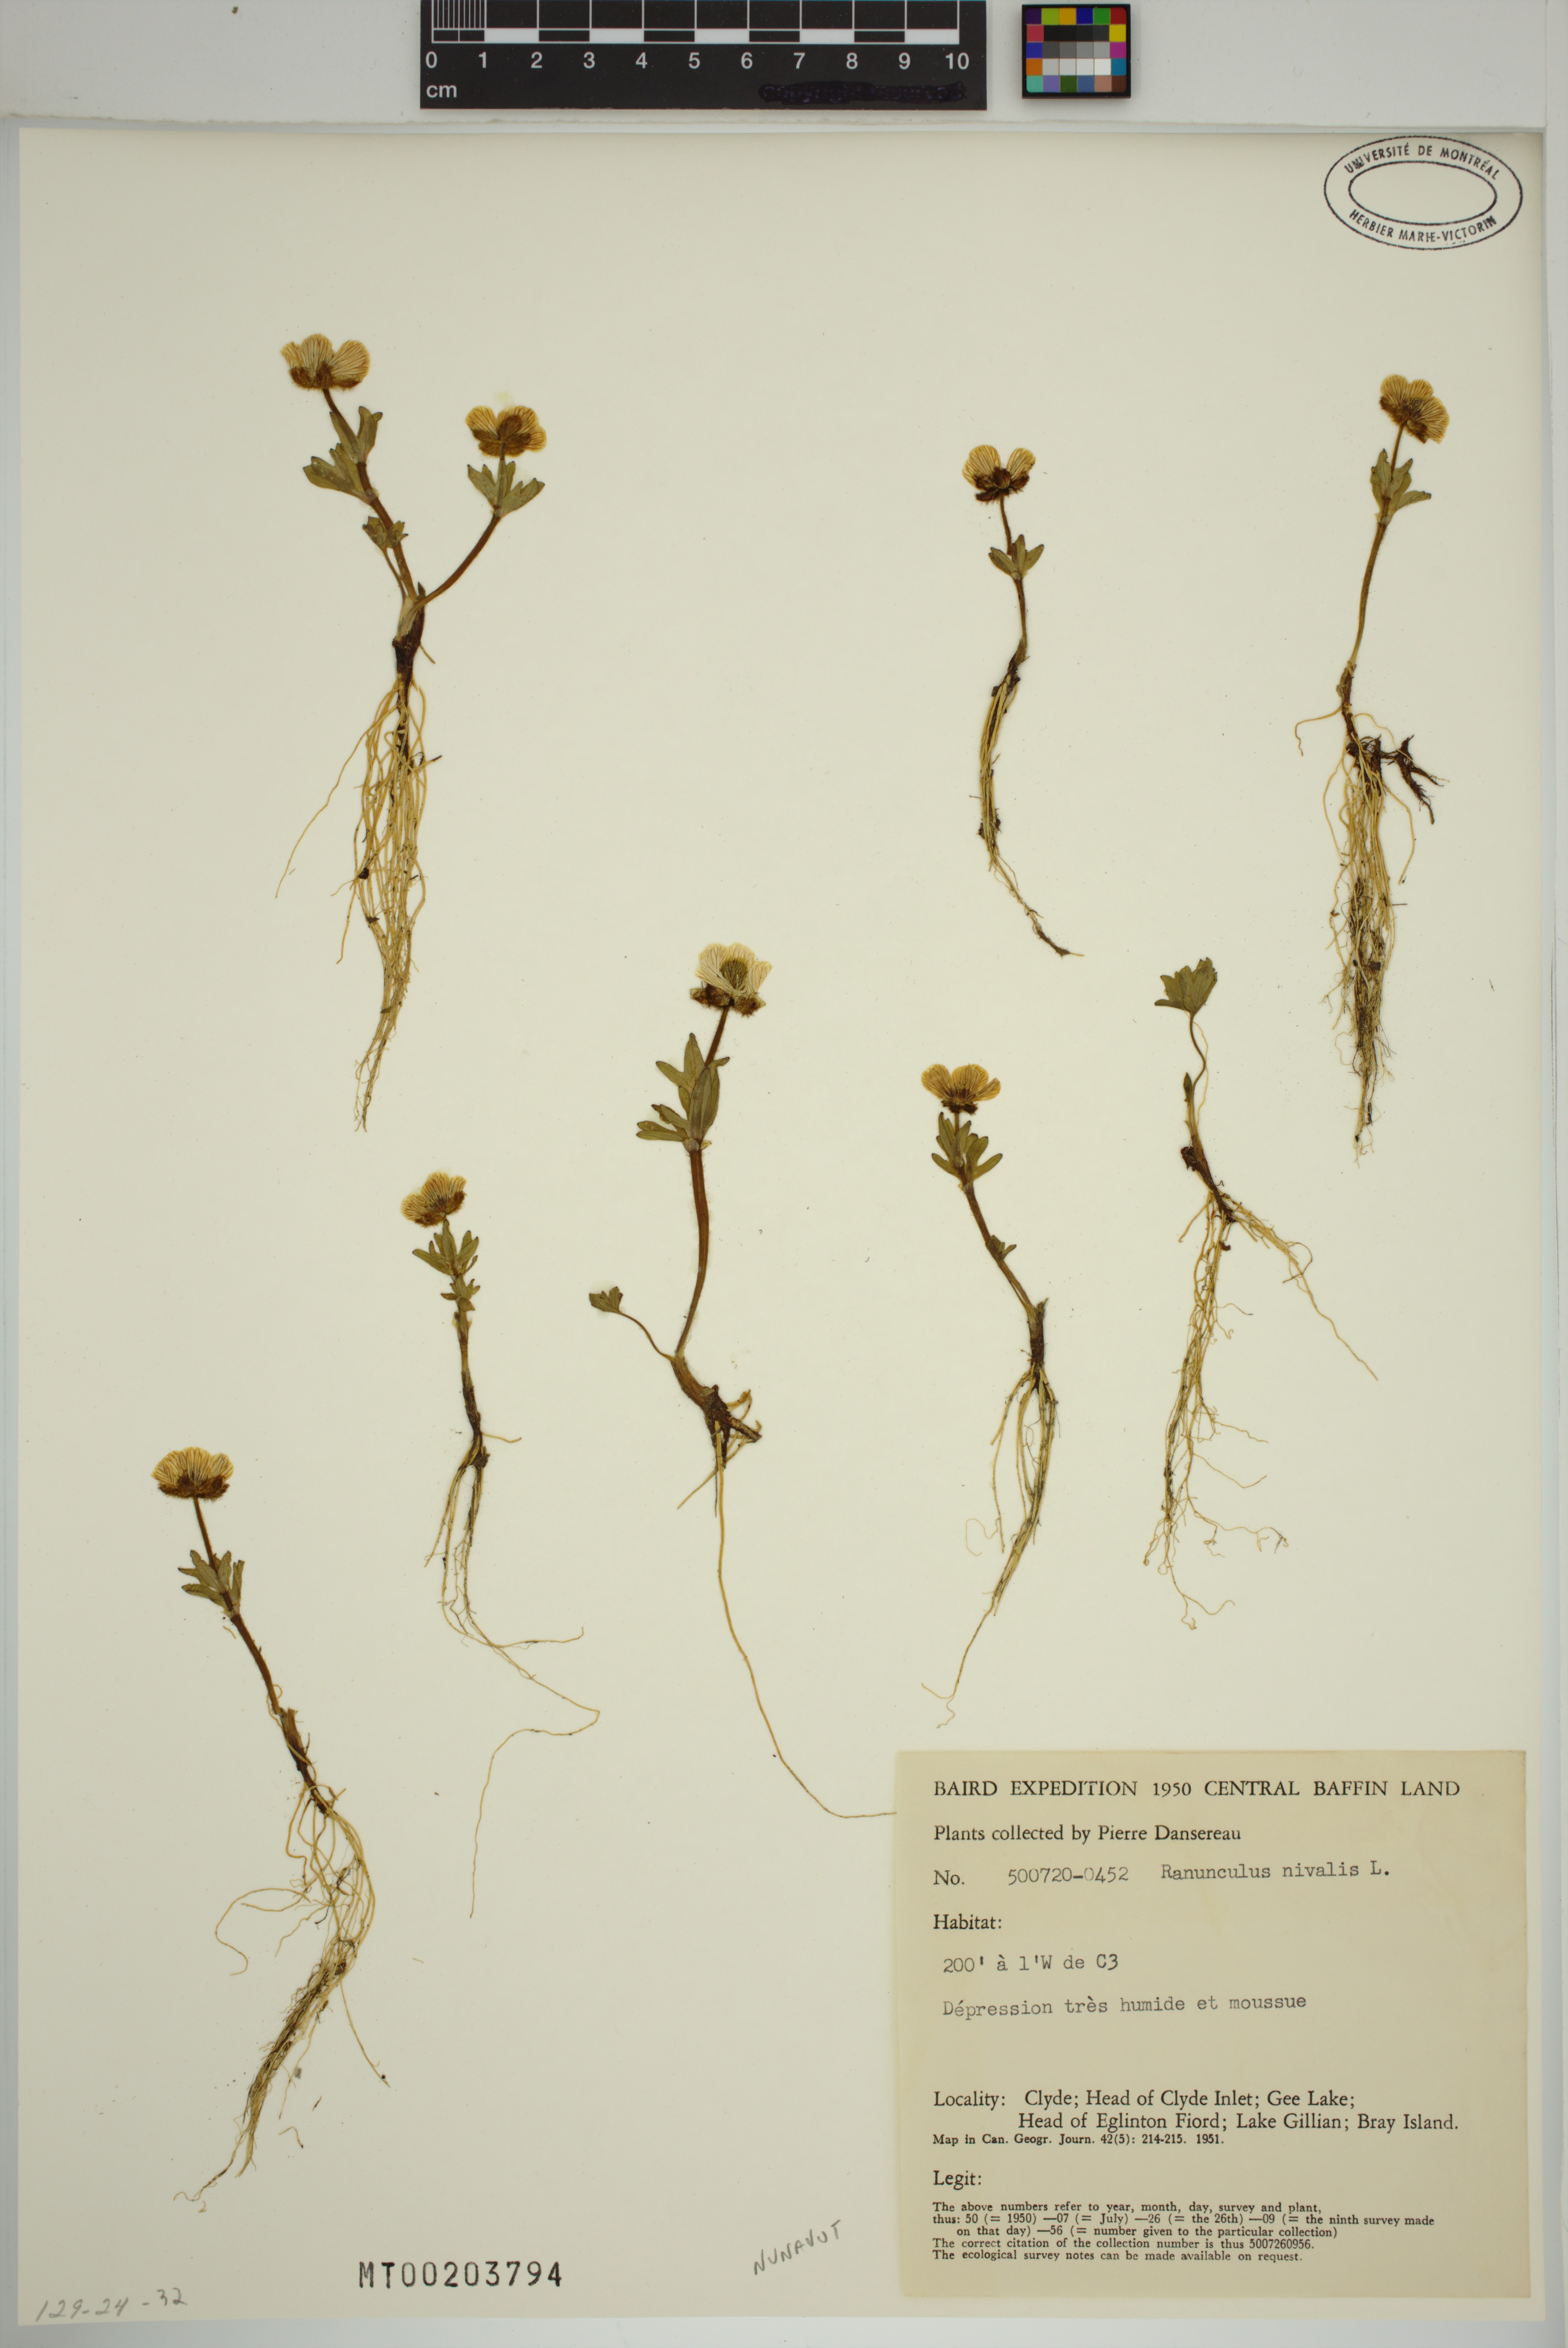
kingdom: Plantae
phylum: Tracheophyta
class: Magnoliopsida
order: Ranunculales
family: Ranunculaceae
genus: Ranunculus
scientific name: Ranunculus nivalis
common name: Snow buttercup
